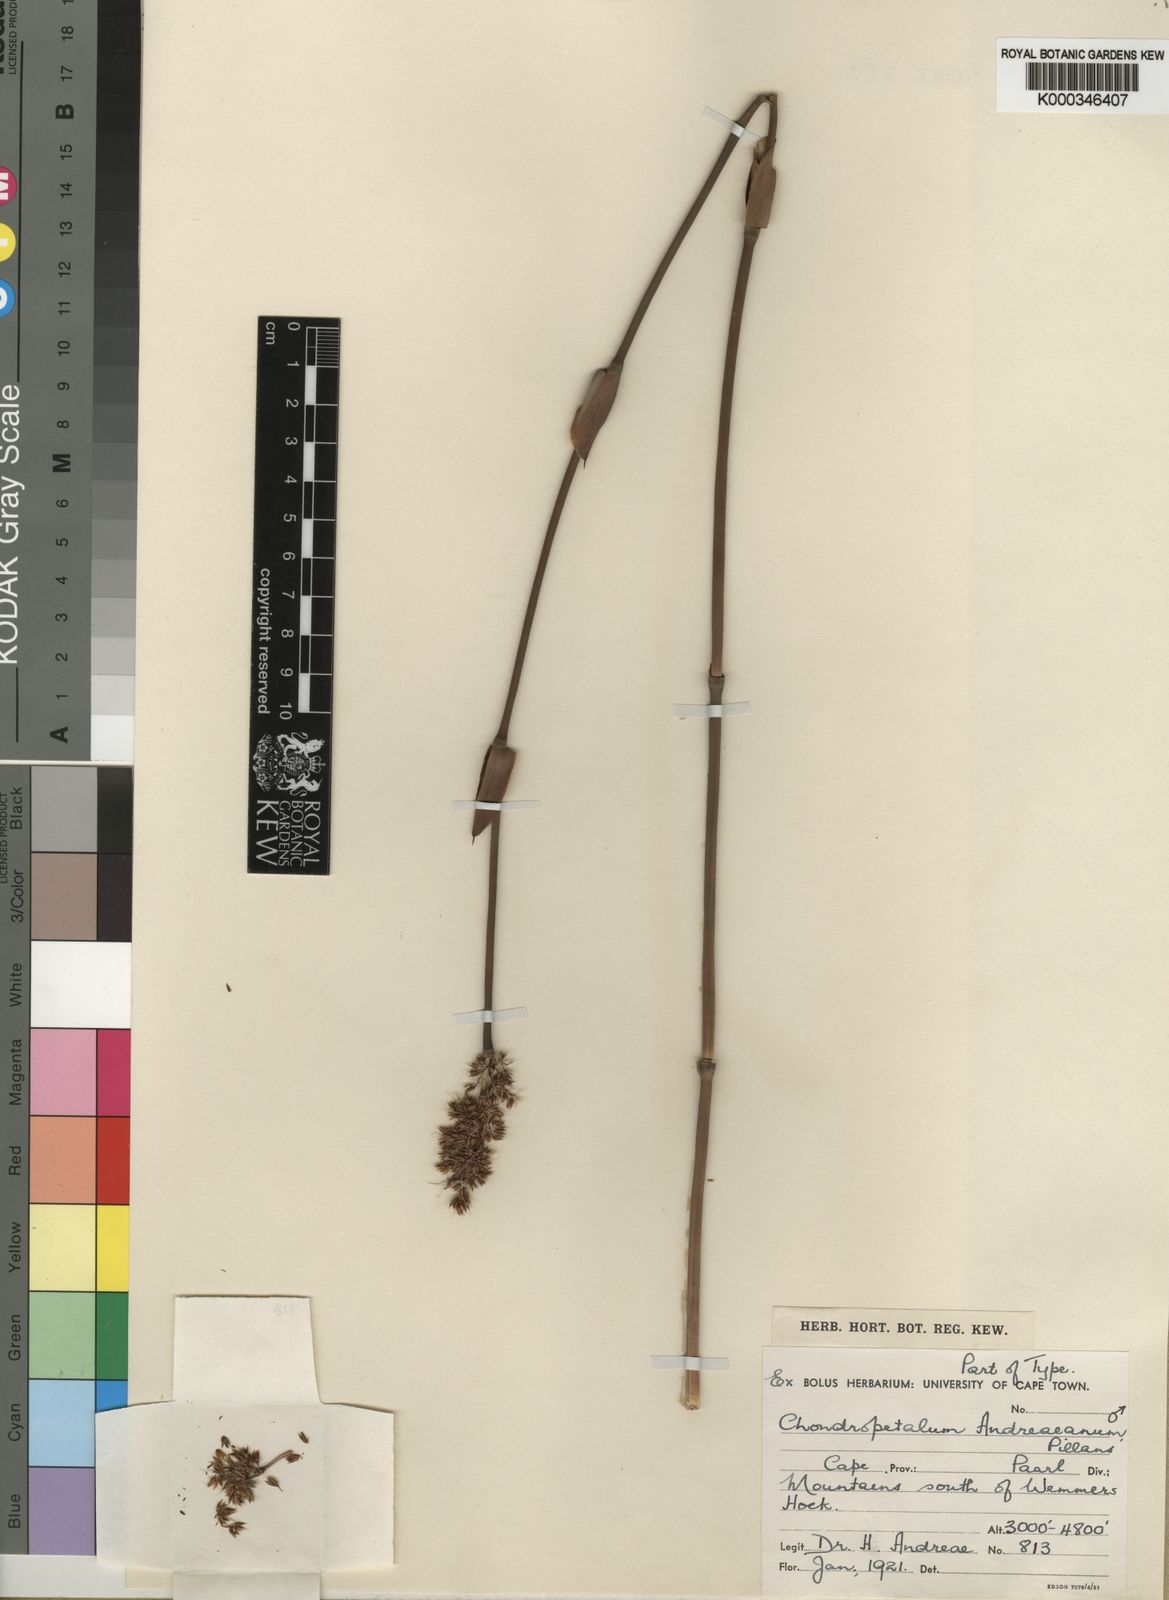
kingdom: Plantae
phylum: Tracheophyta
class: Liliopsida
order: Poales
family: Restionaceae
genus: Askidiosperma
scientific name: Askidiosperma andreaeanum
